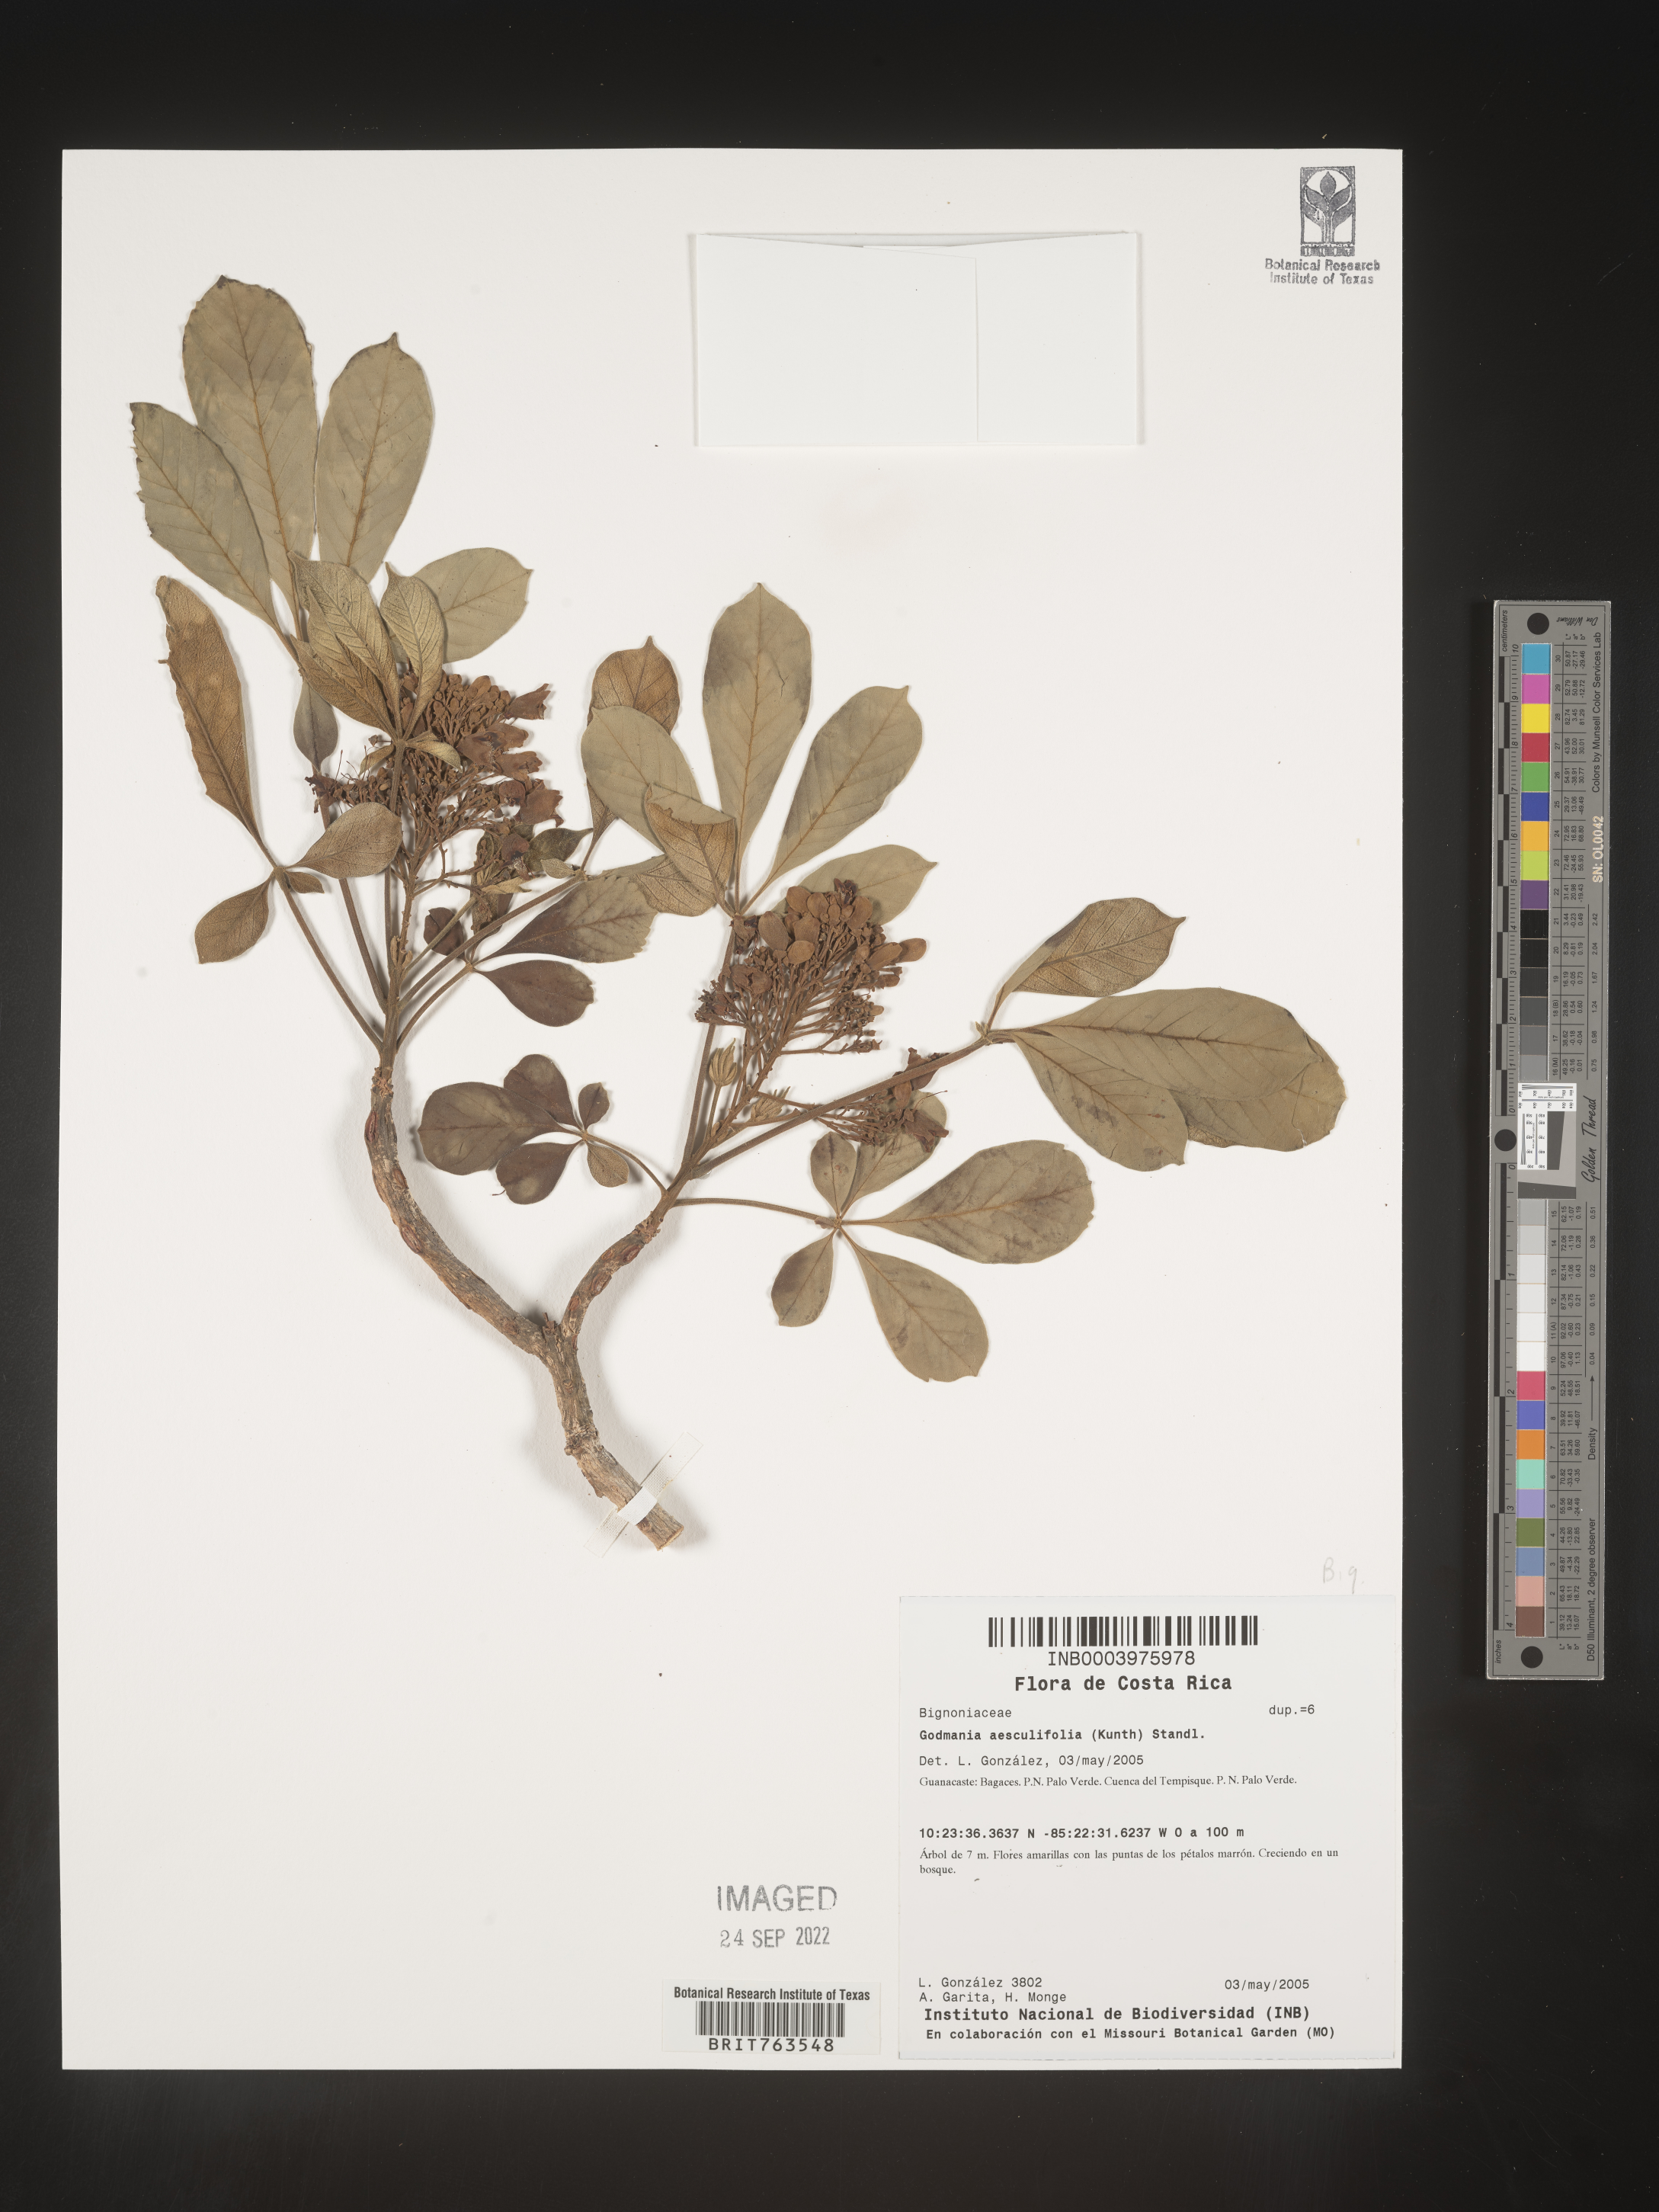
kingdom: Plantae
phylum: Tracheophyta
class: Magnoliopsida
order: Lamiales
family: Bignoniaceae
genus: Godmania
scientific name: Godmania
